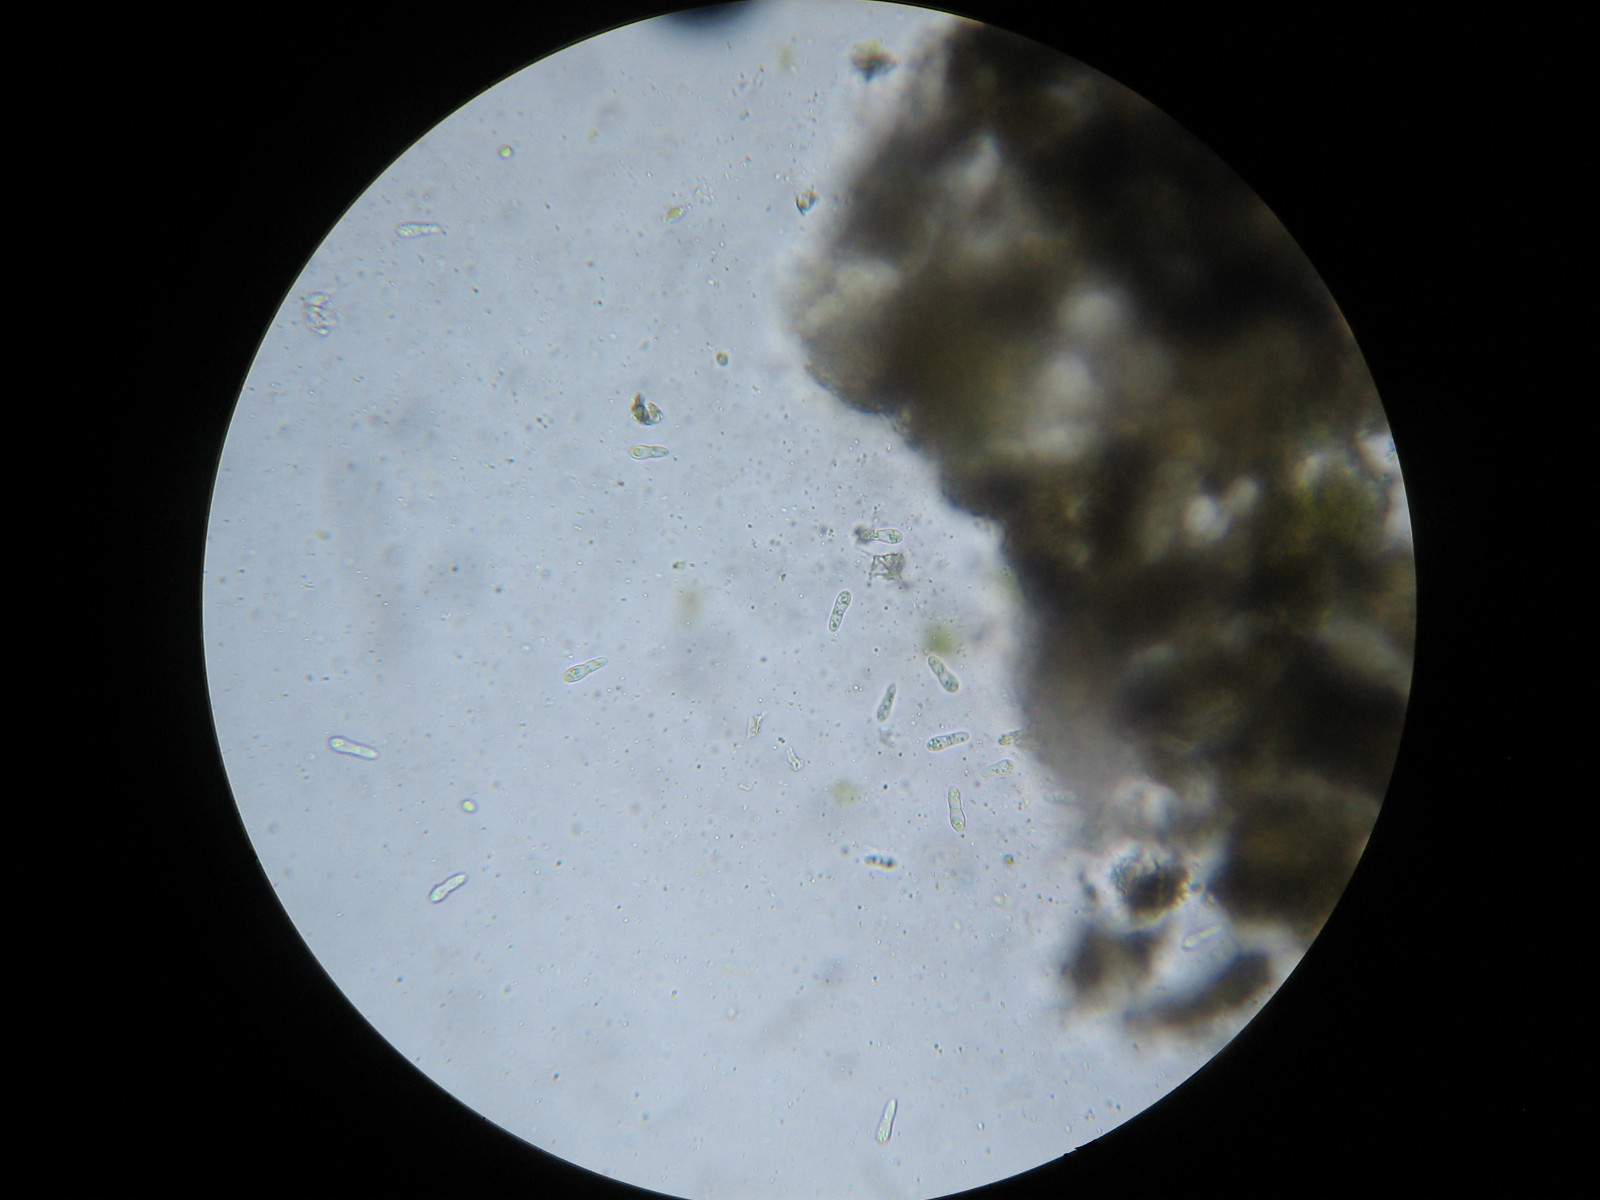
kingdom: Fungi
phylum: Ascomycota
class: Arthoniomycetes
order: Arthoniales
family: Arthoniaceae
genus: Bryostigma
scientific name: Bryostigma phaeophysciae
